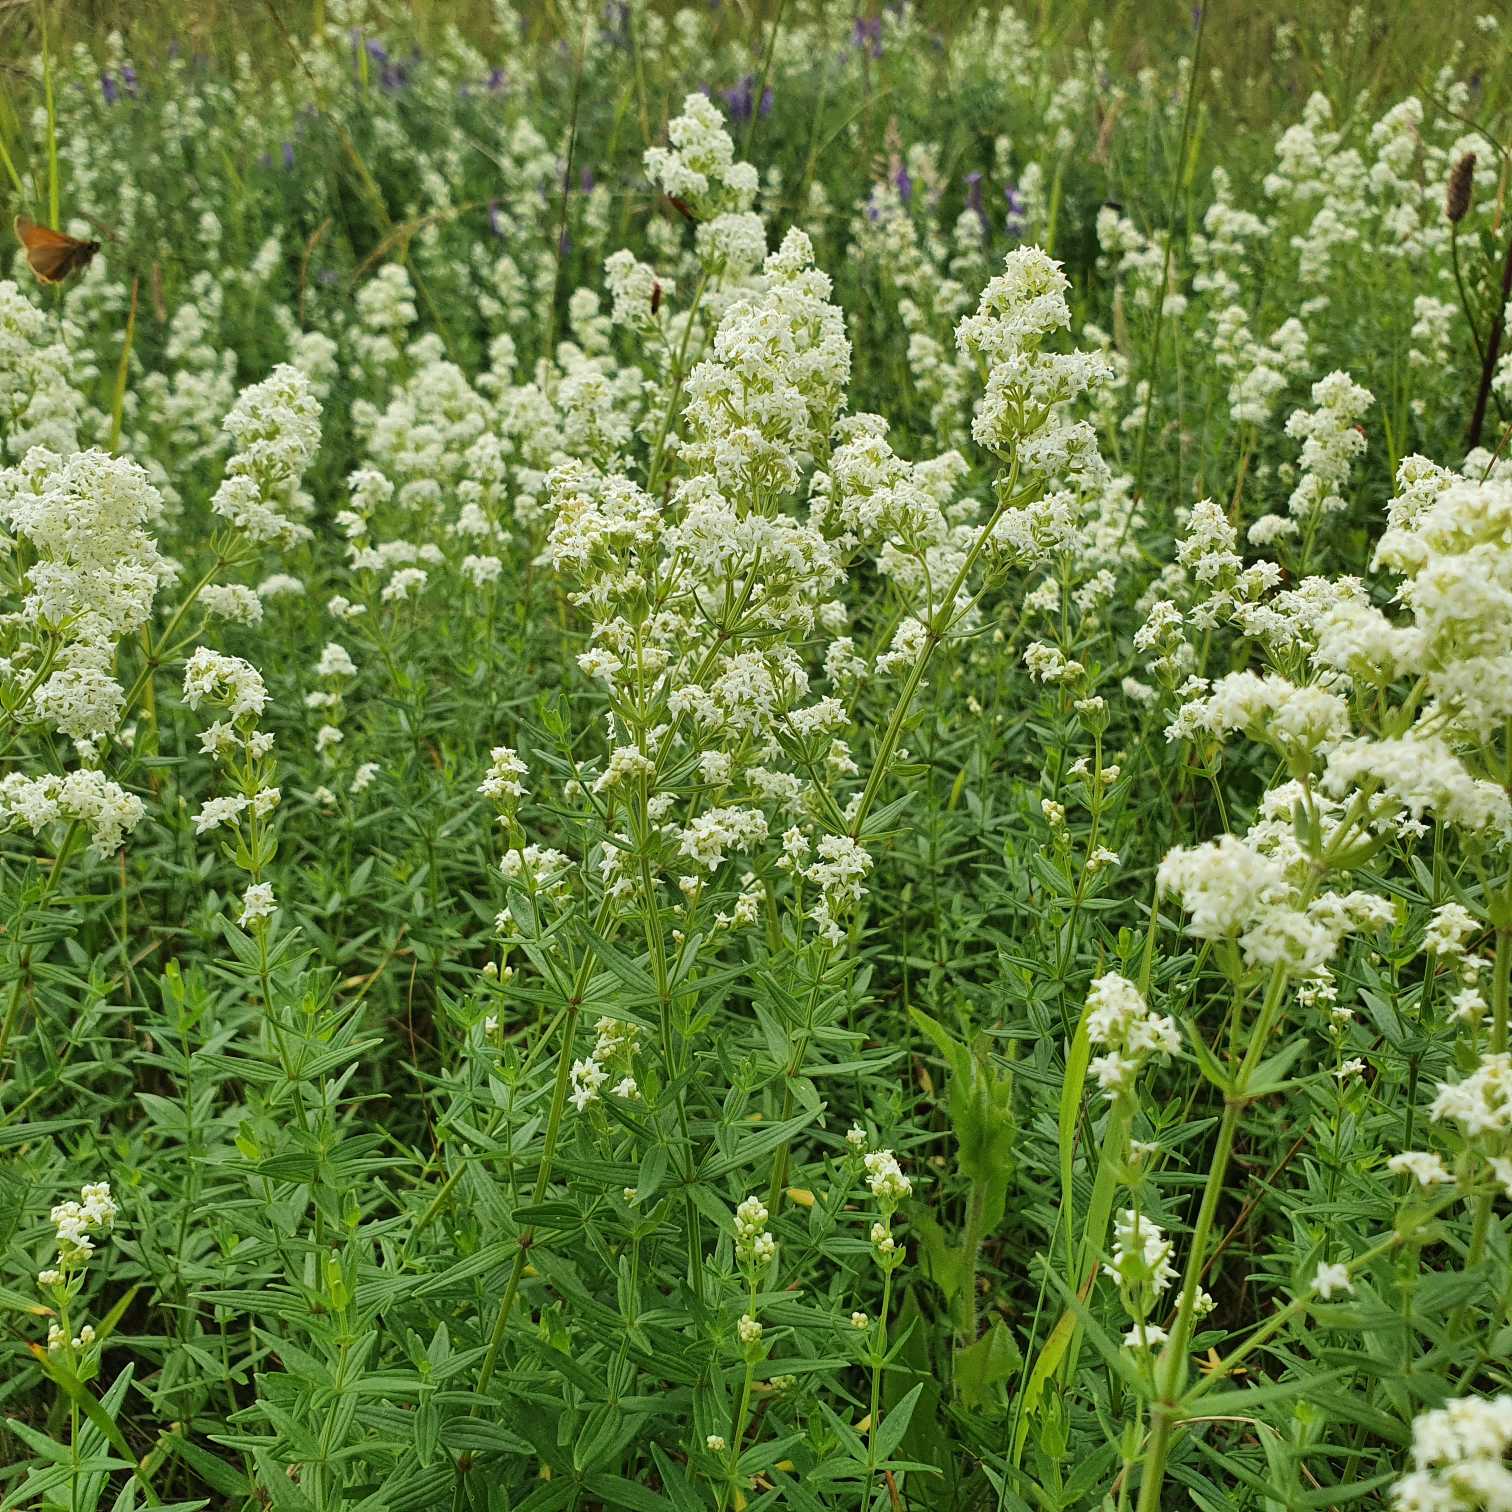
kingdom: Plantae
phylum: Tracheophyta
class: Magnoliopsida
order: Gentianales
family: Rubiaceae
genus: Galium
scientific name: Galium boreale
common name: Trenervet snerre
